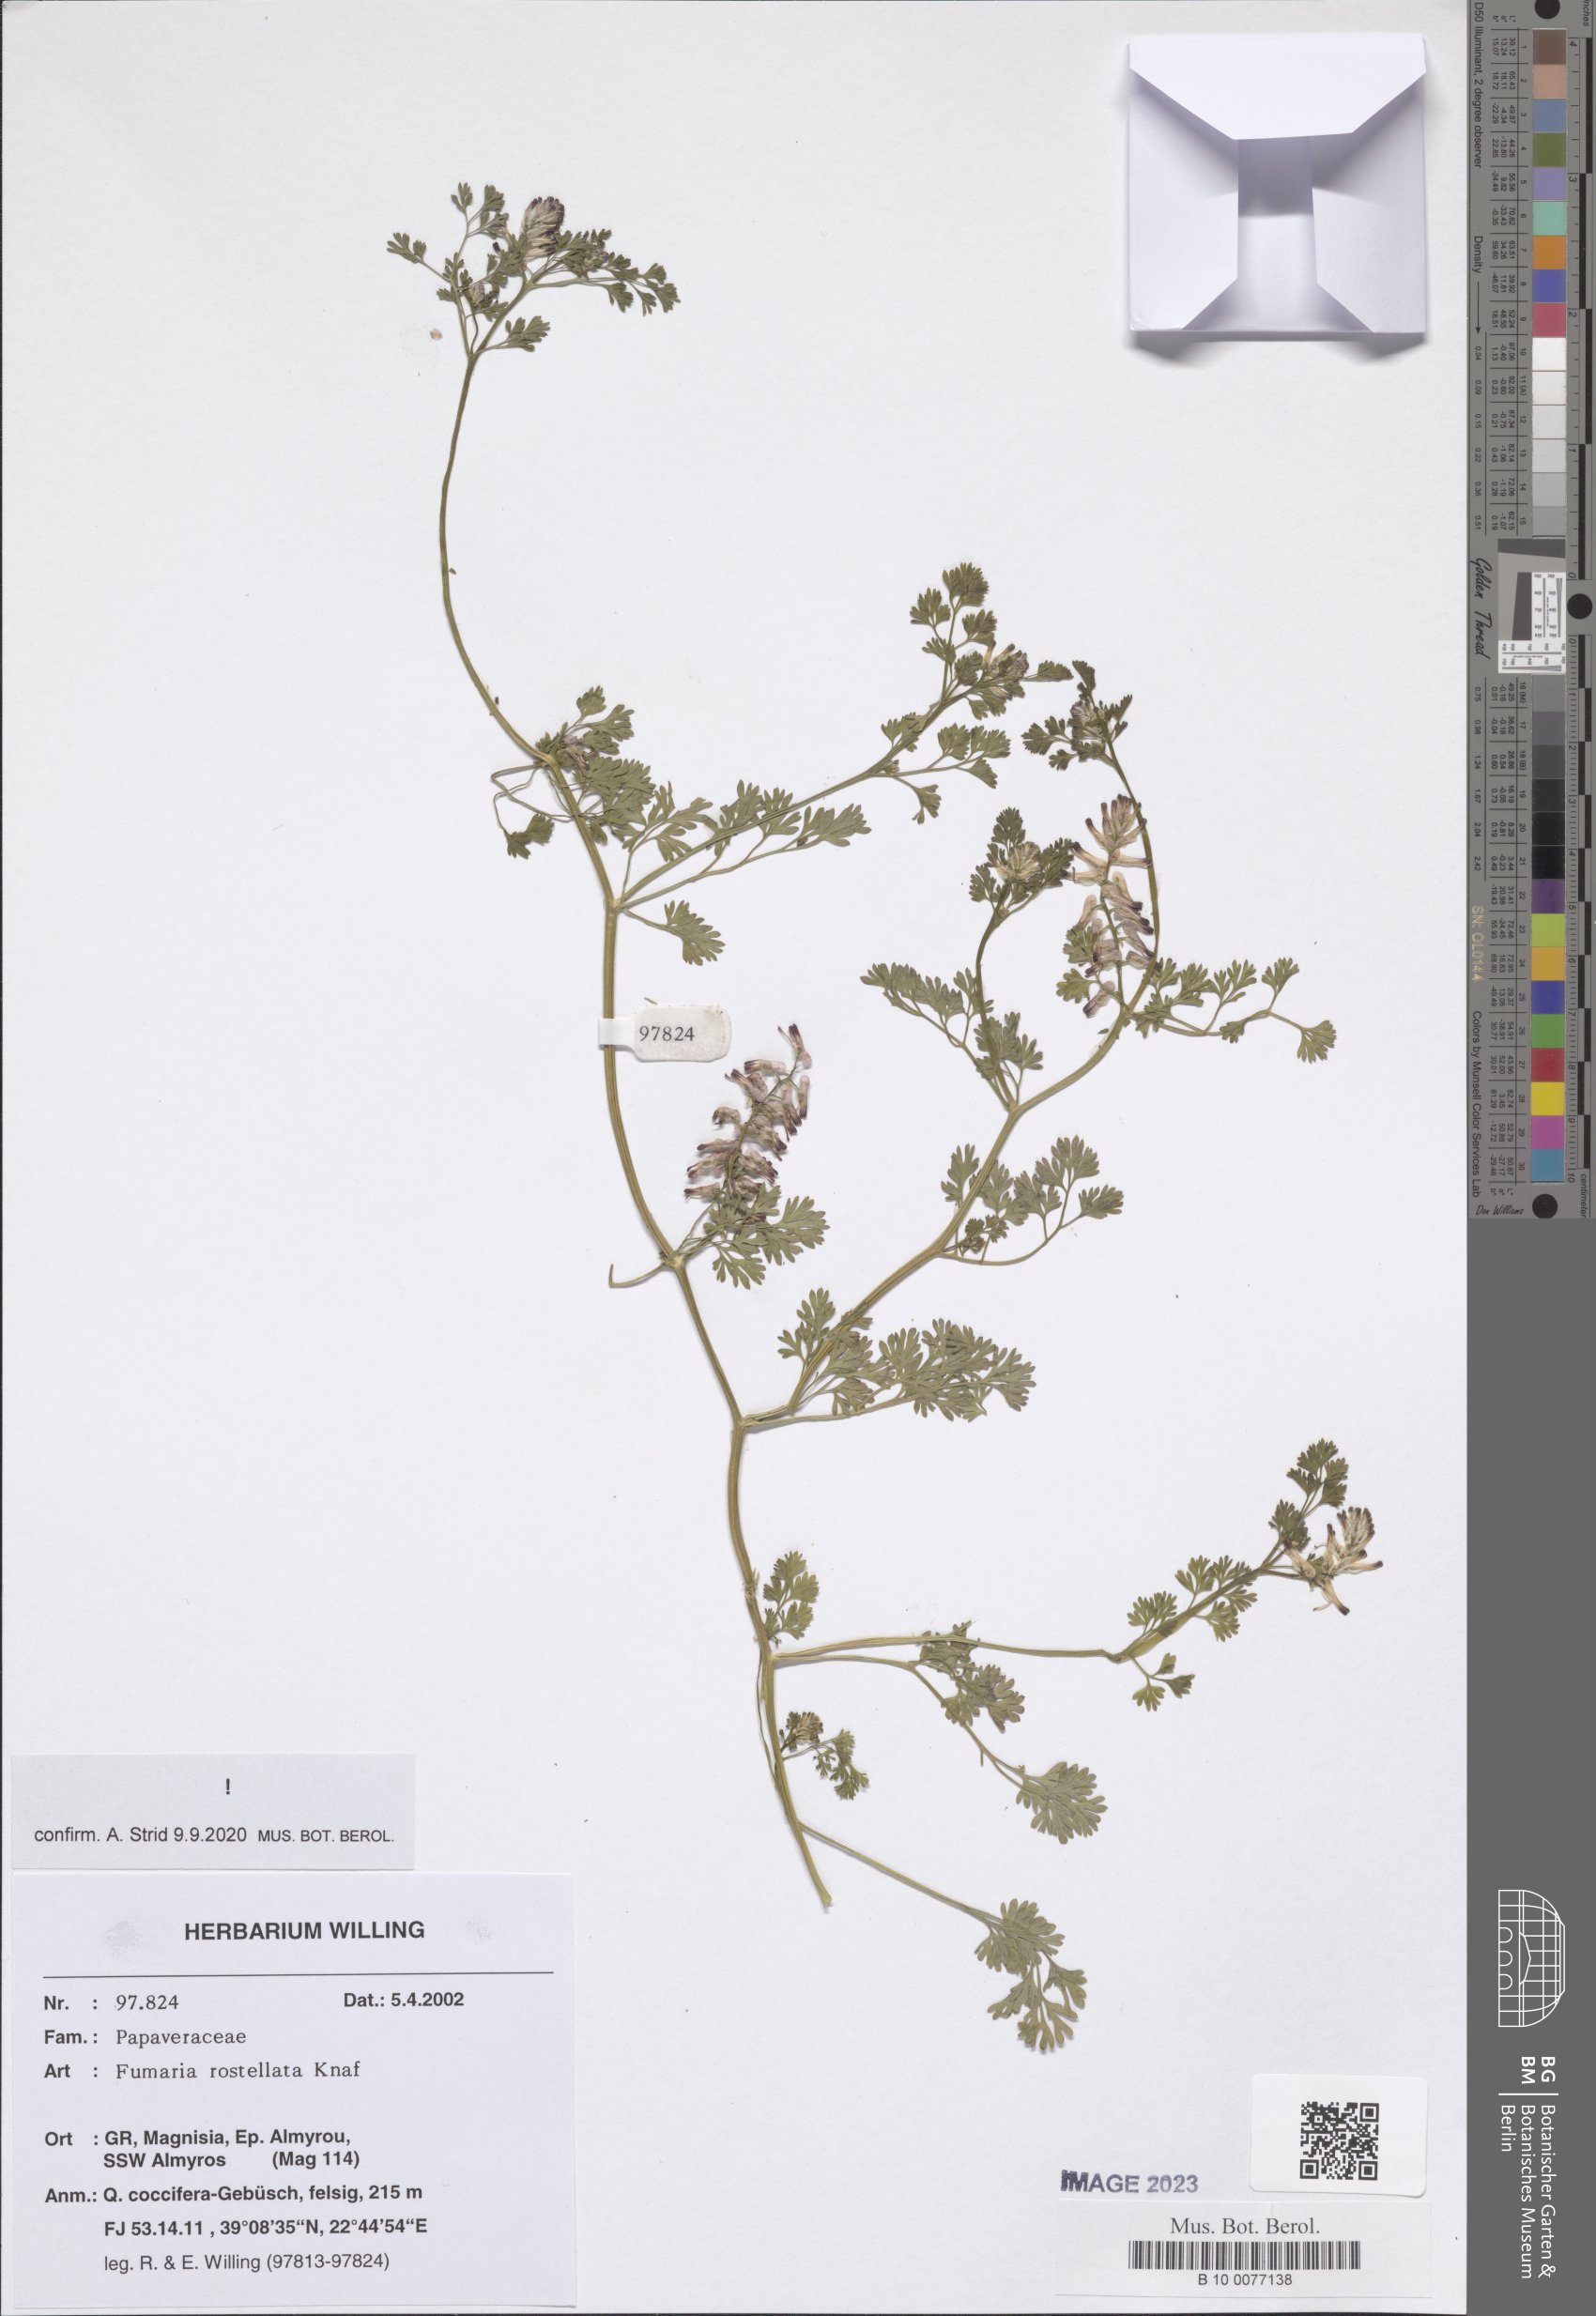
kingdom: Plantae
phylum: Tracheophyta
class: Magnoliopsida
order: Ranunculales
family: Papaveraceae
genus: Fumaria
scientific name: Fumaria rostellata
